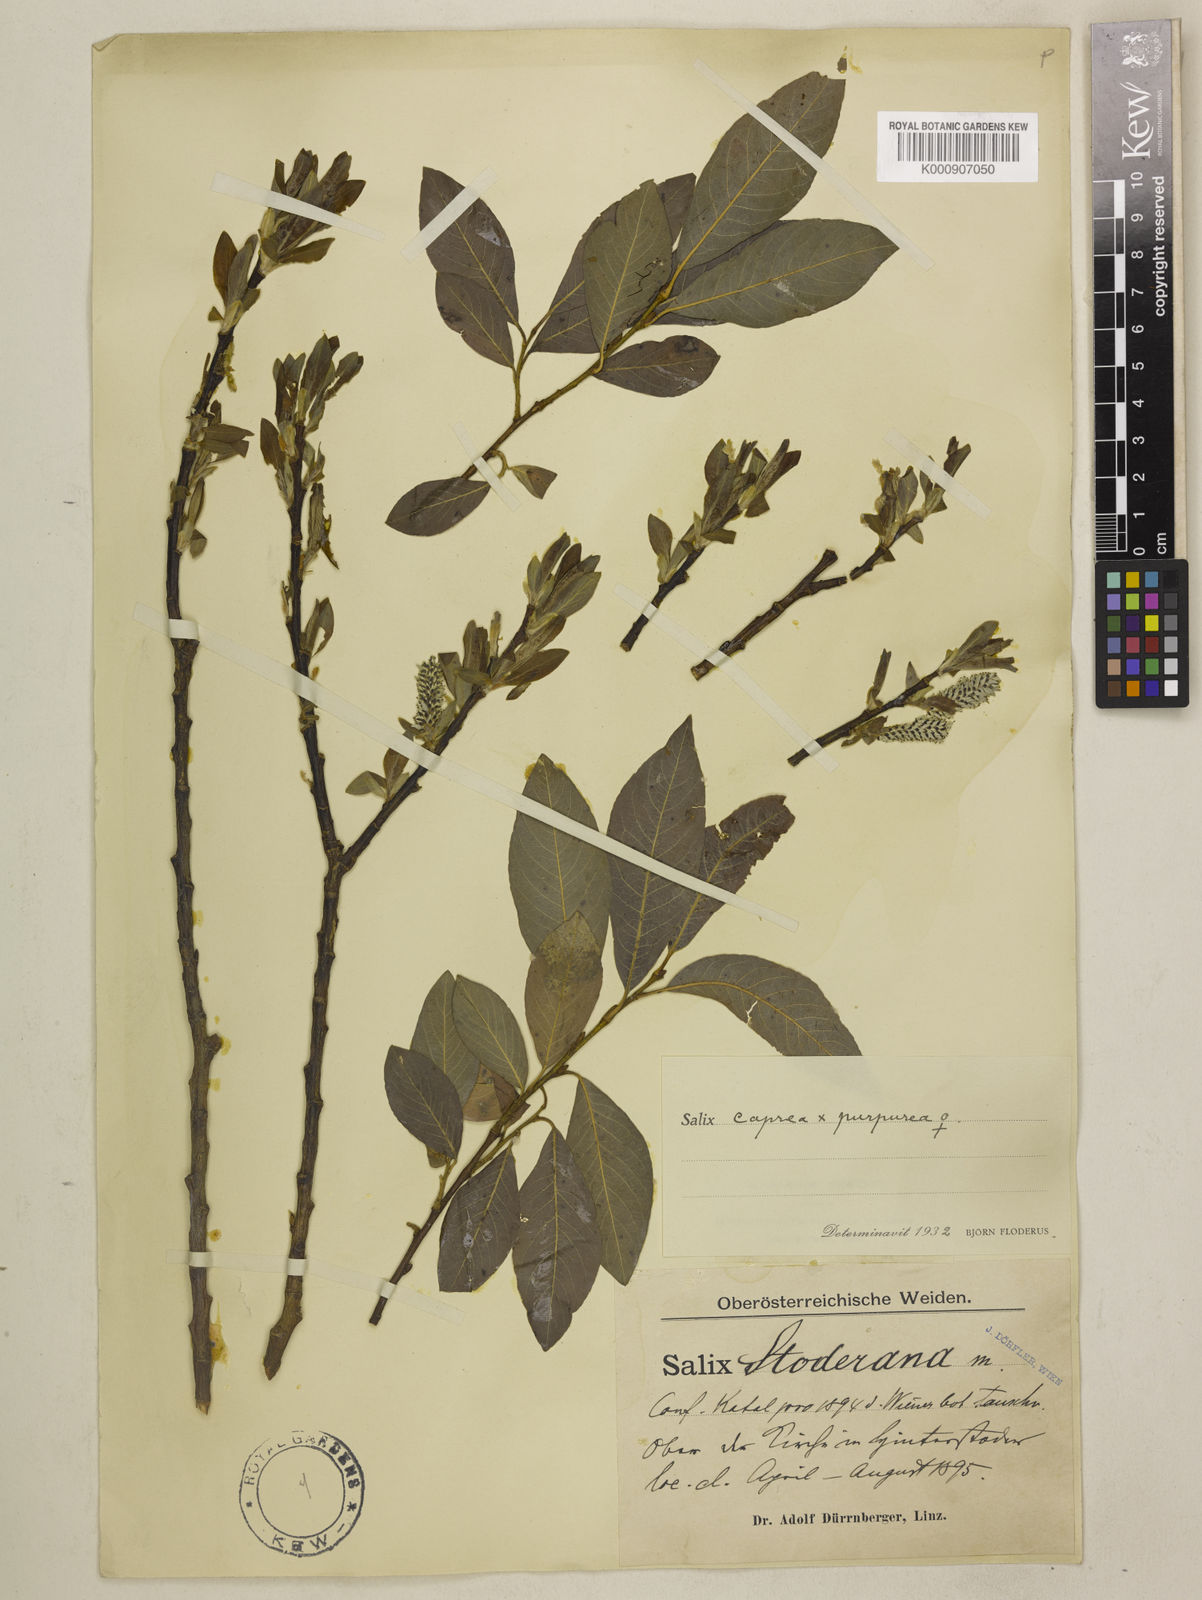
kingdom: Plantae
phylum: Tracheophyta
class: Magnoliopsida
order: Malpighiales
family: Salicaceae
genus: Salix
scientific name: Salix caprea
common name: Goat willow
